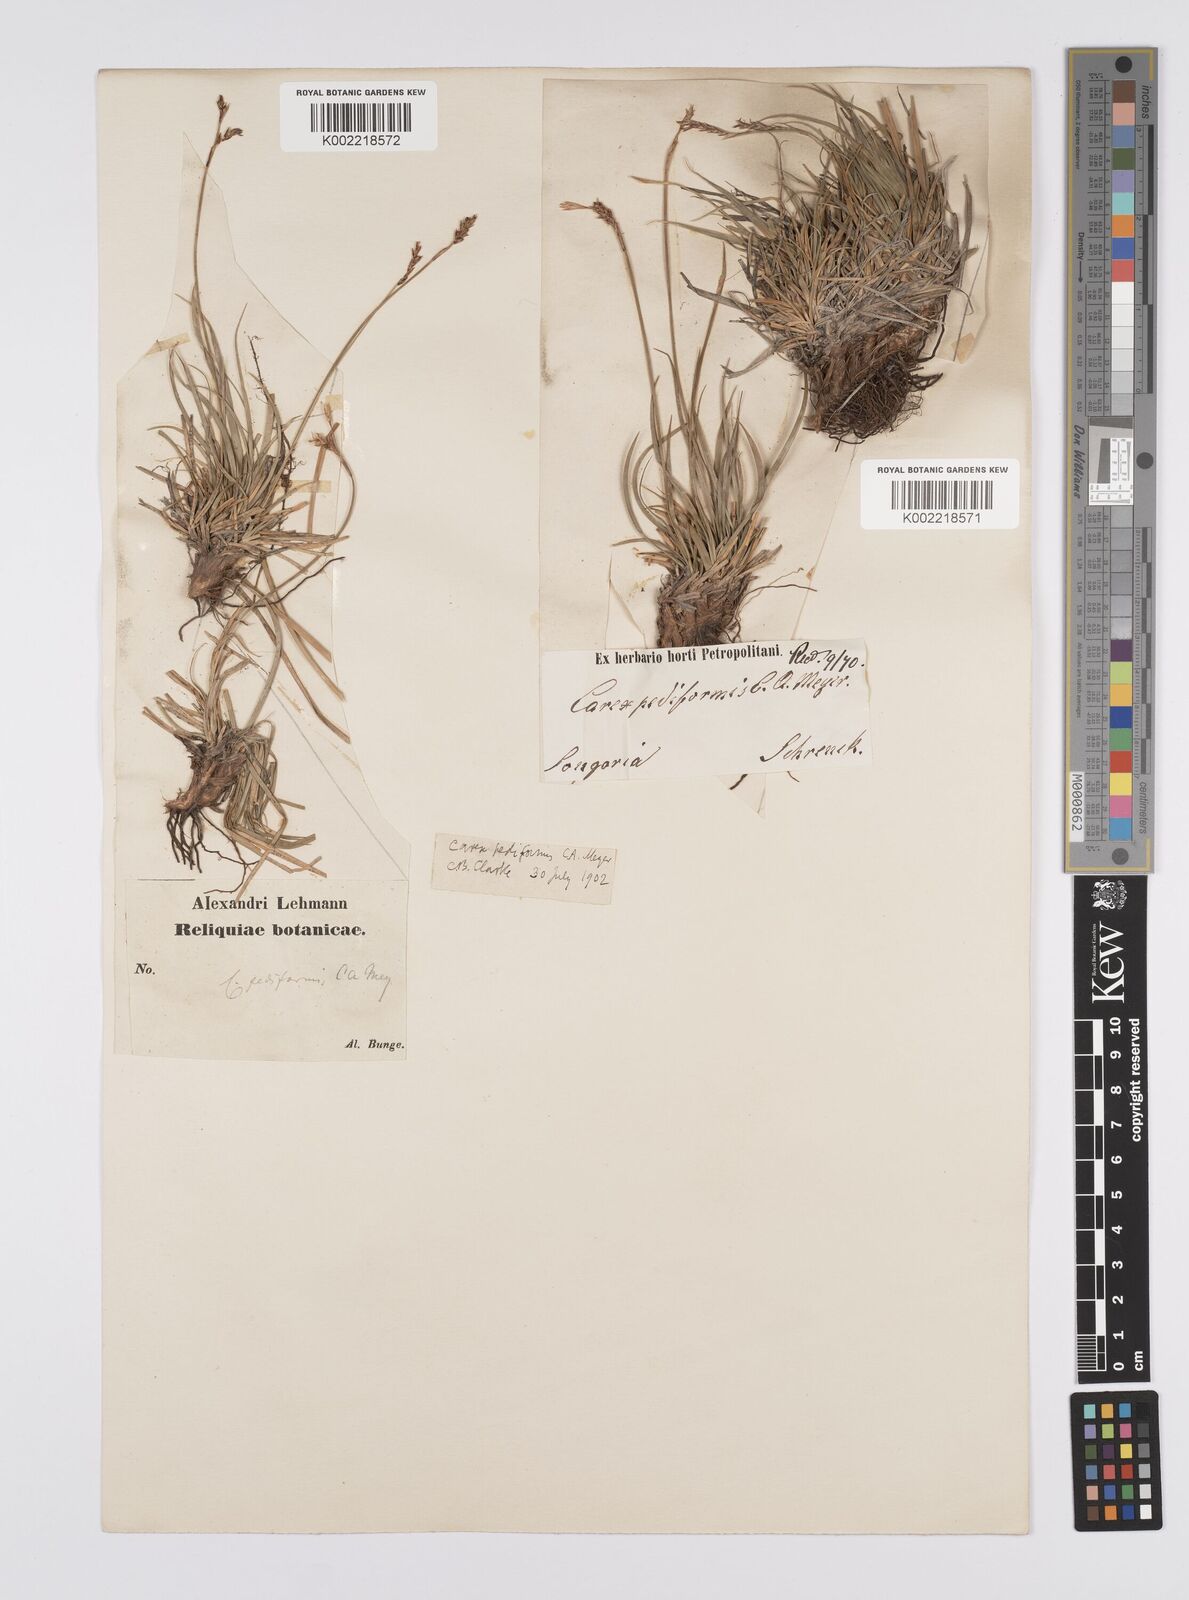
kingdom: Plantae
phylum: Tracheophyta
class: Liliopsida
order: Poales
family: Cyperaceae
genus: Carex
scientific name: Carex pediformis
